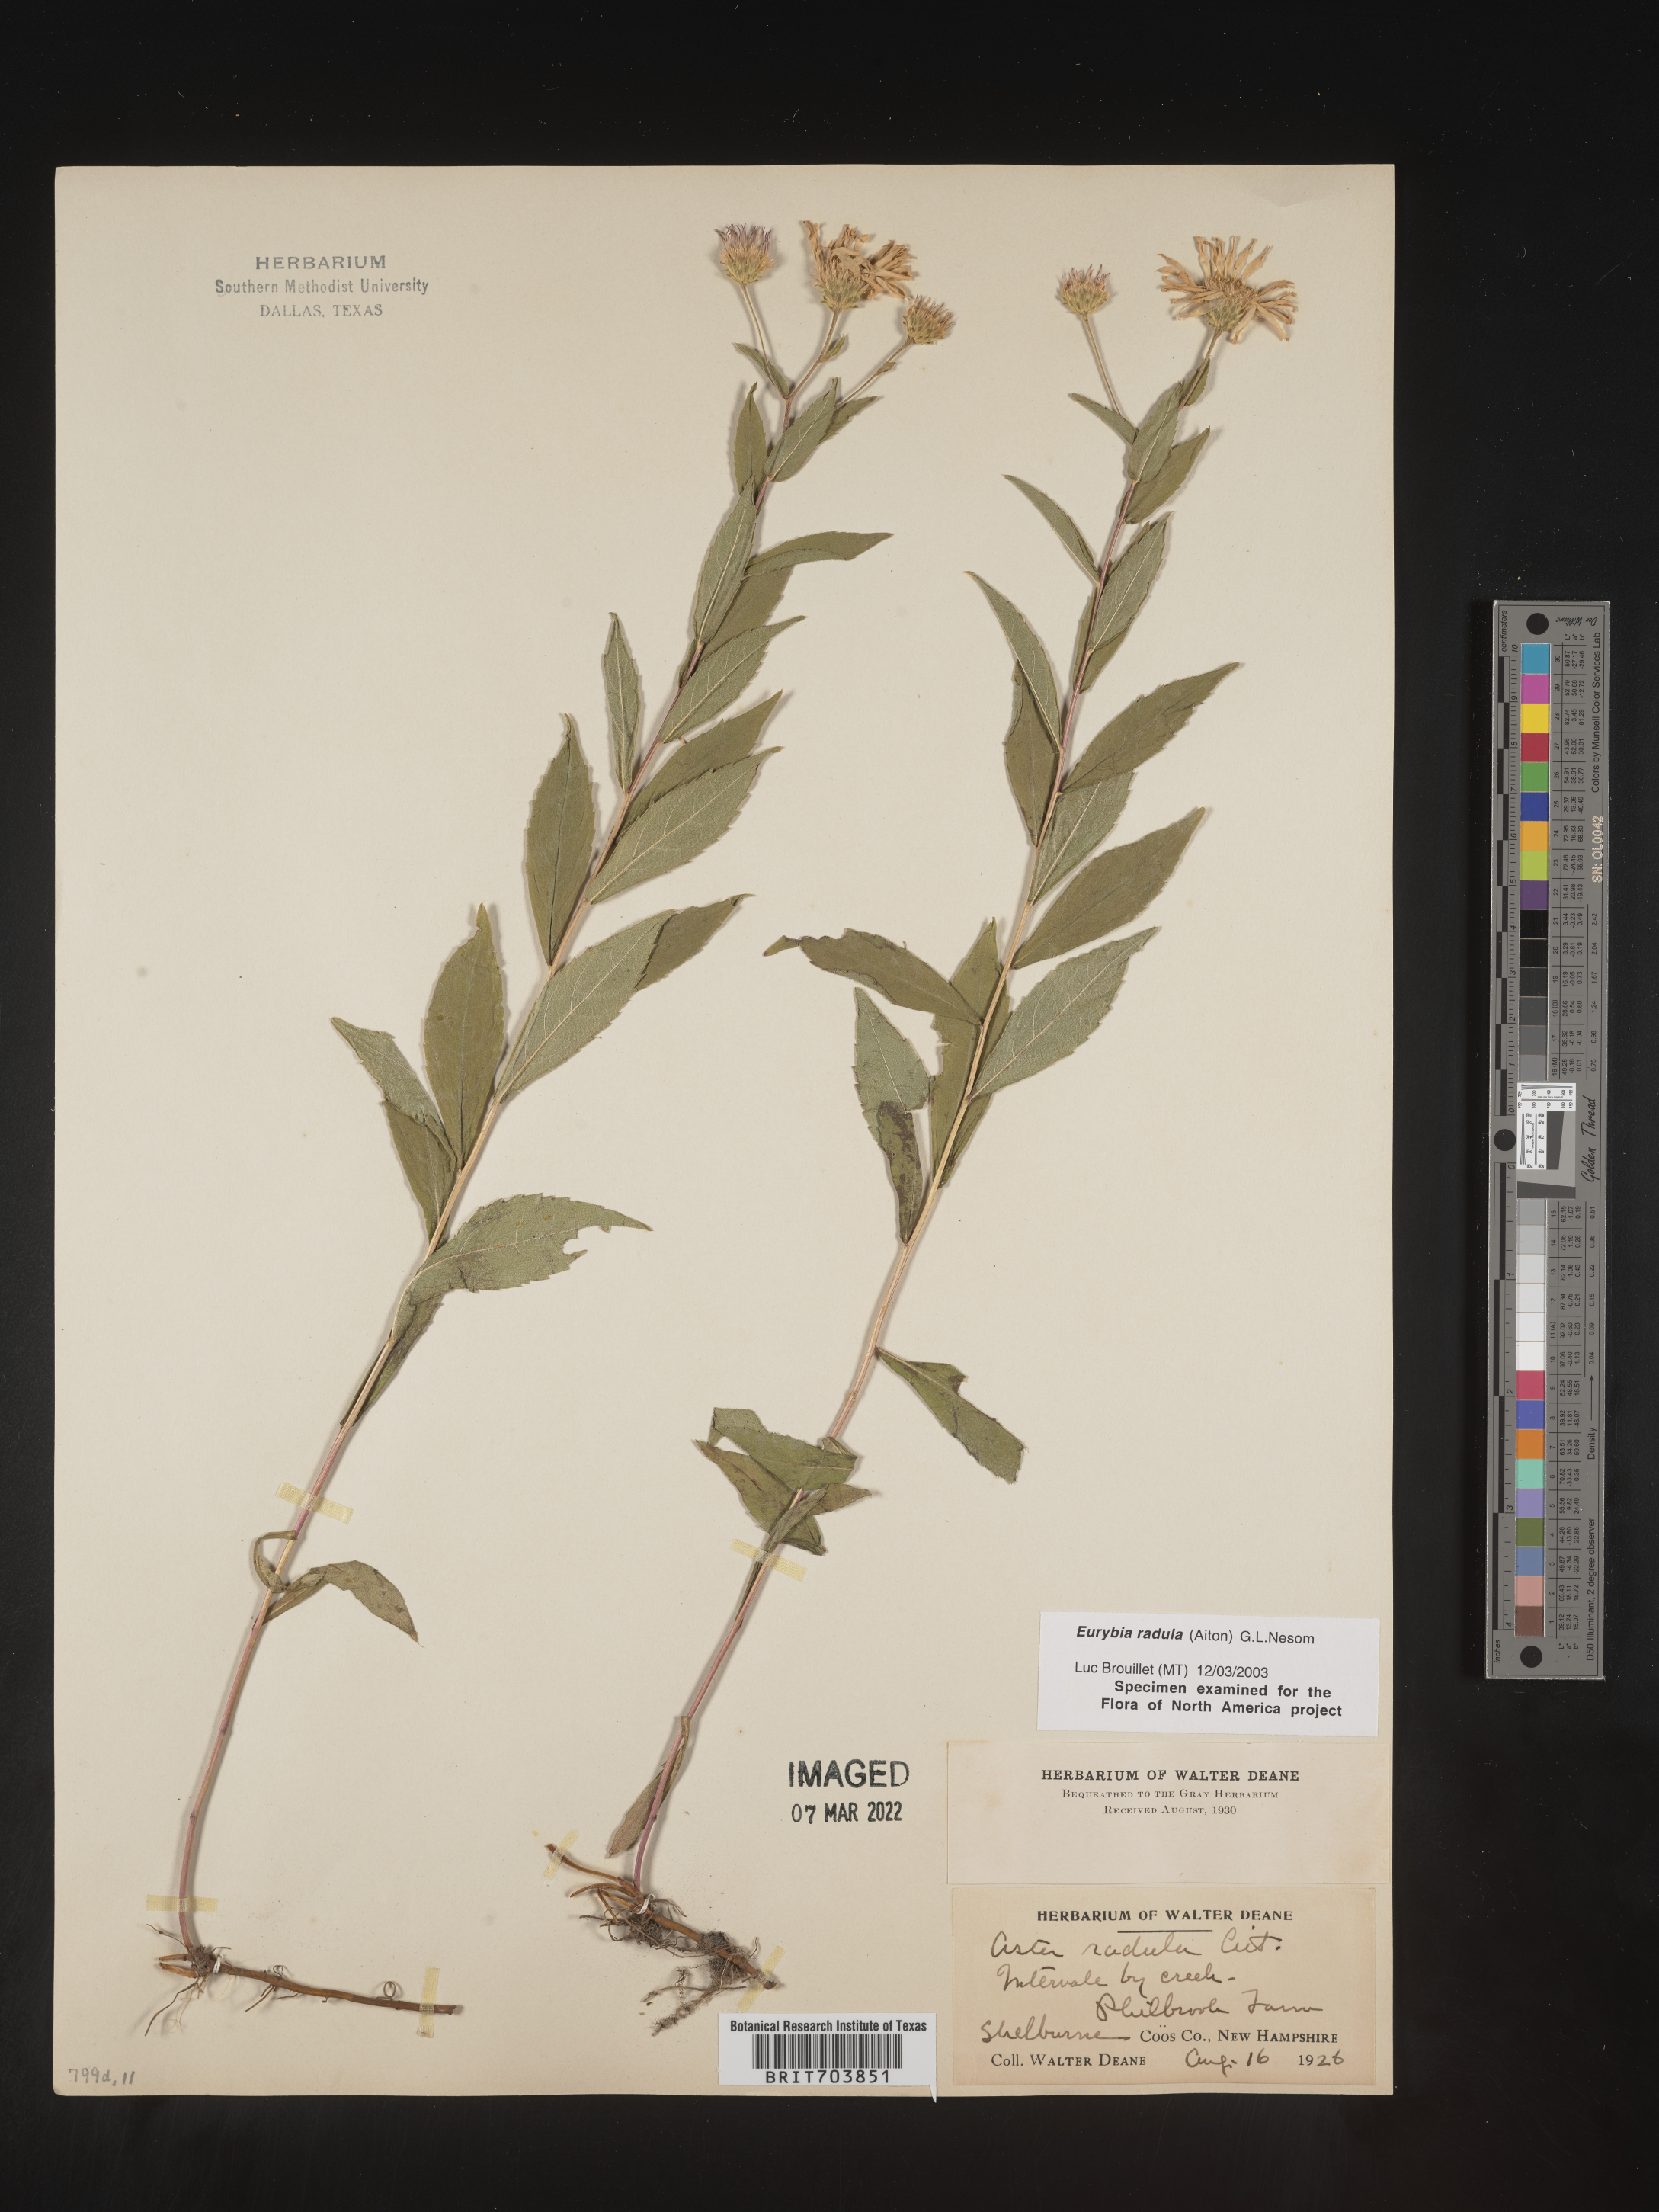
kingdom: Plantae
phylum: Tracheophyta
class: Magnoliopsida
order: Asterales
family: Asteraceae
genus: Eurybia
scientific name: Eurybia radula
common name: Low rough aster
